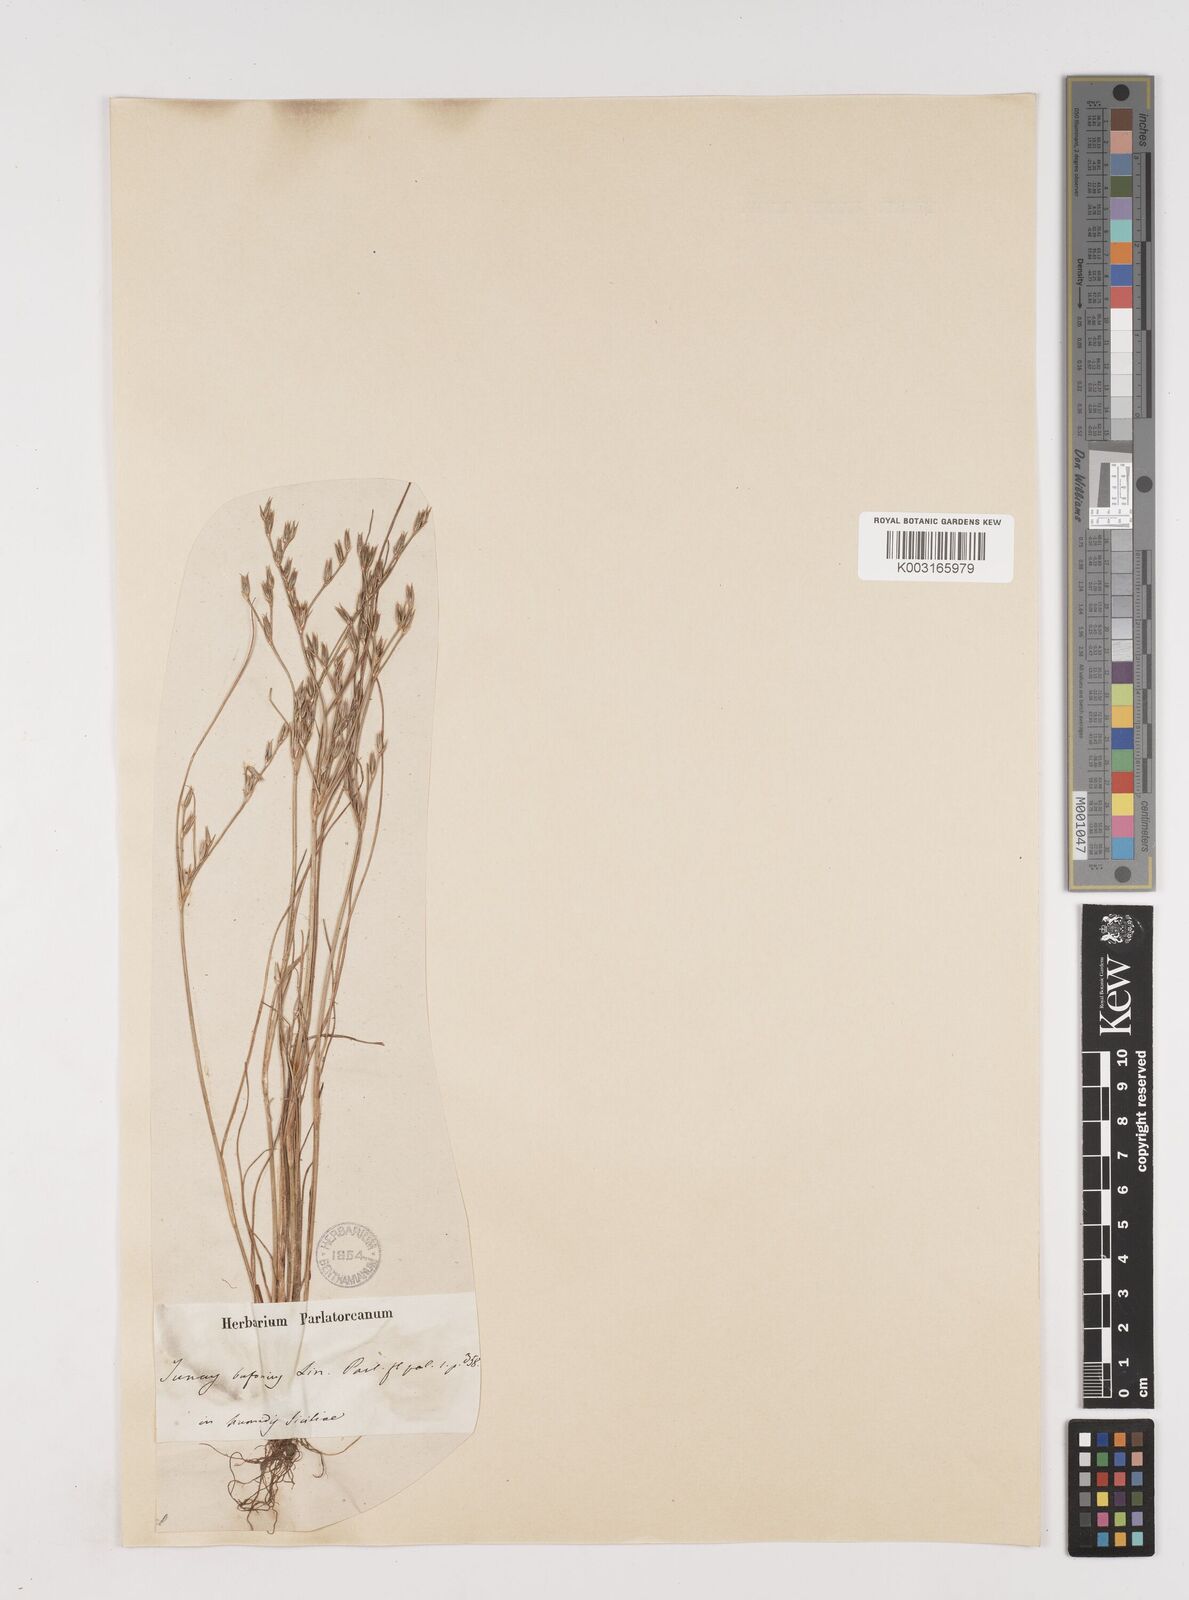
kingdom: Plantae
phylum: Tracheophyta
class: Liliopsida
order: Poales
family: Juncaceae
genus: Juncus
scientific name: Juncus bufonius
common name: Toad rush
